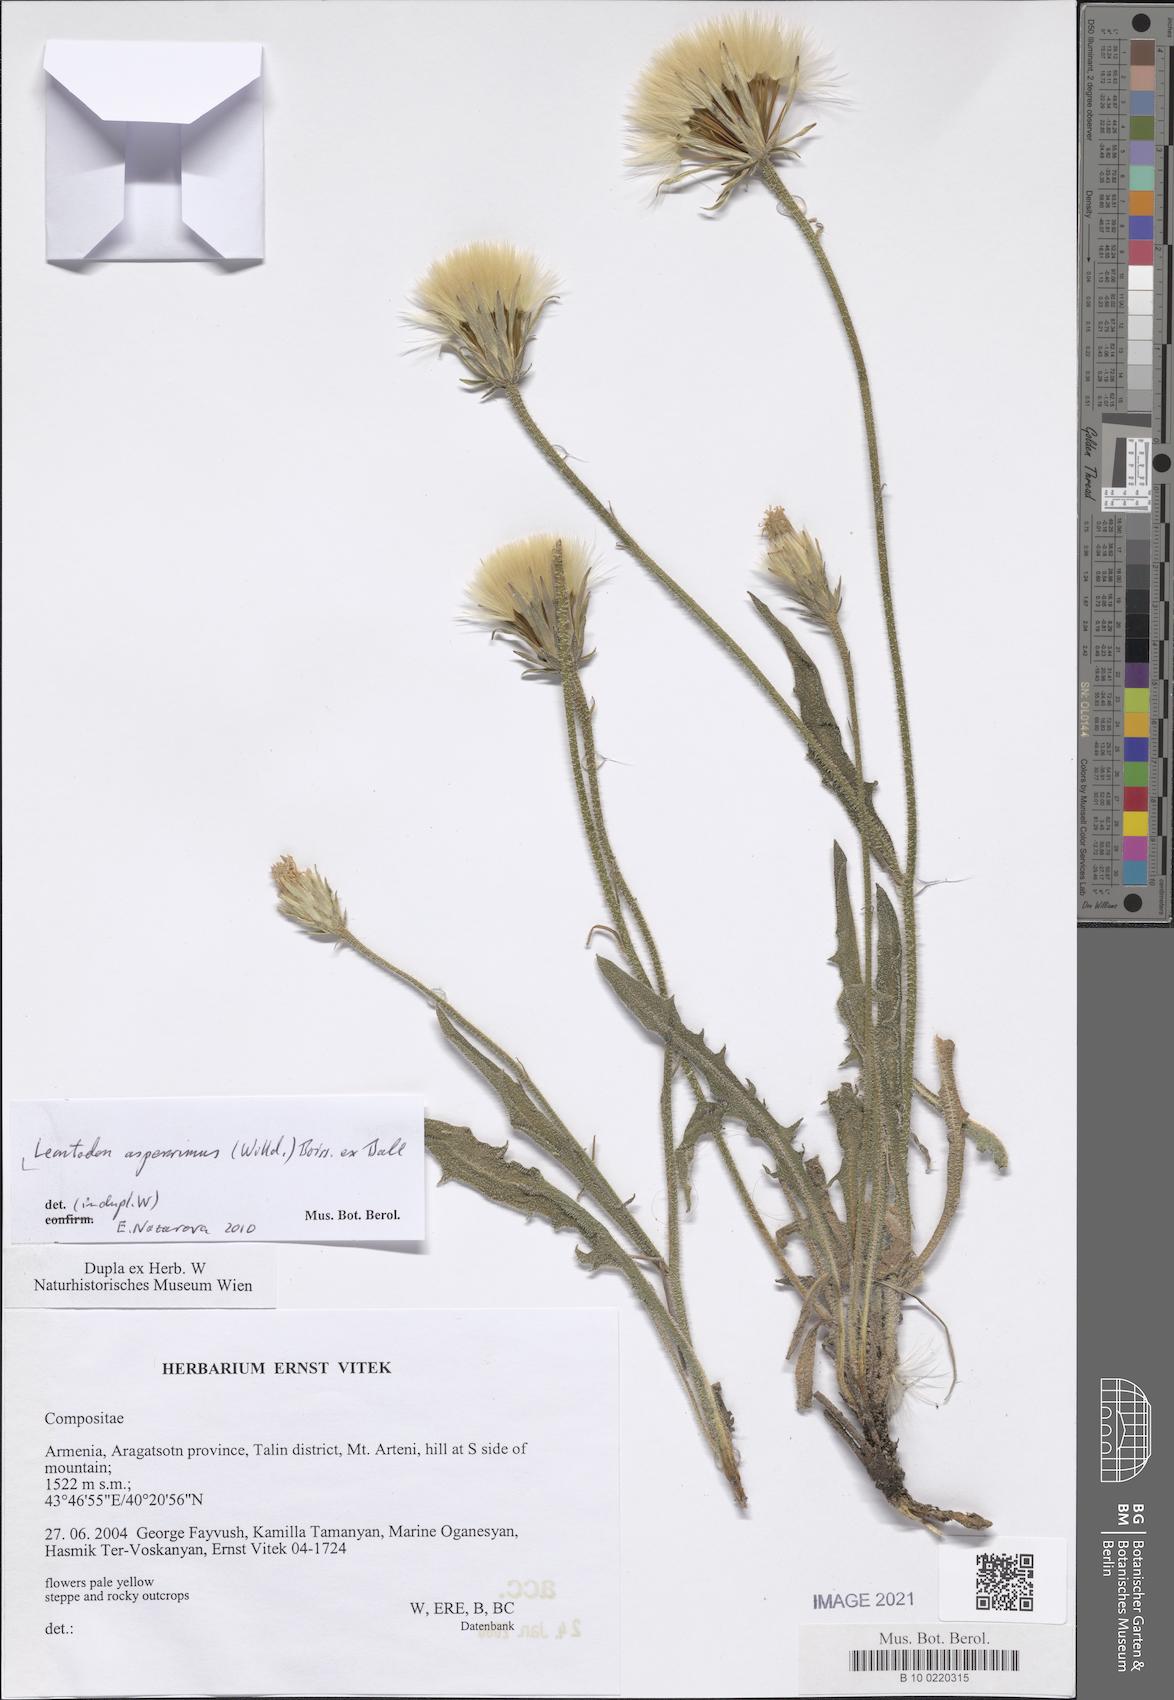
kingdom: Plantae
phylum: Tracheophyta
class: Magnoliopsida
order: Asterales
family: Asteraceae
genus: Leontodon
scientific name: Leontodon asperrimus
